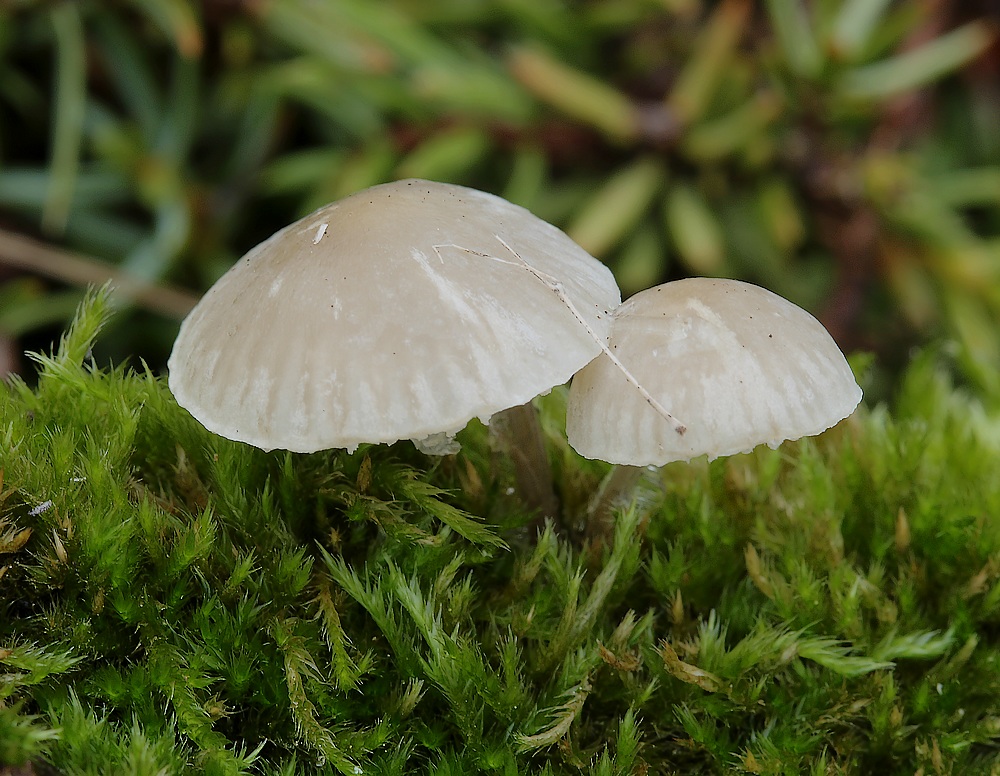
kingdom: Fungi
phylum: Basidiomycota
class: Agaricomycetes
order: Agaricales
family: Mycenaceae
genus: Mycena
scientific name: Mycena
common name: huesvamp
